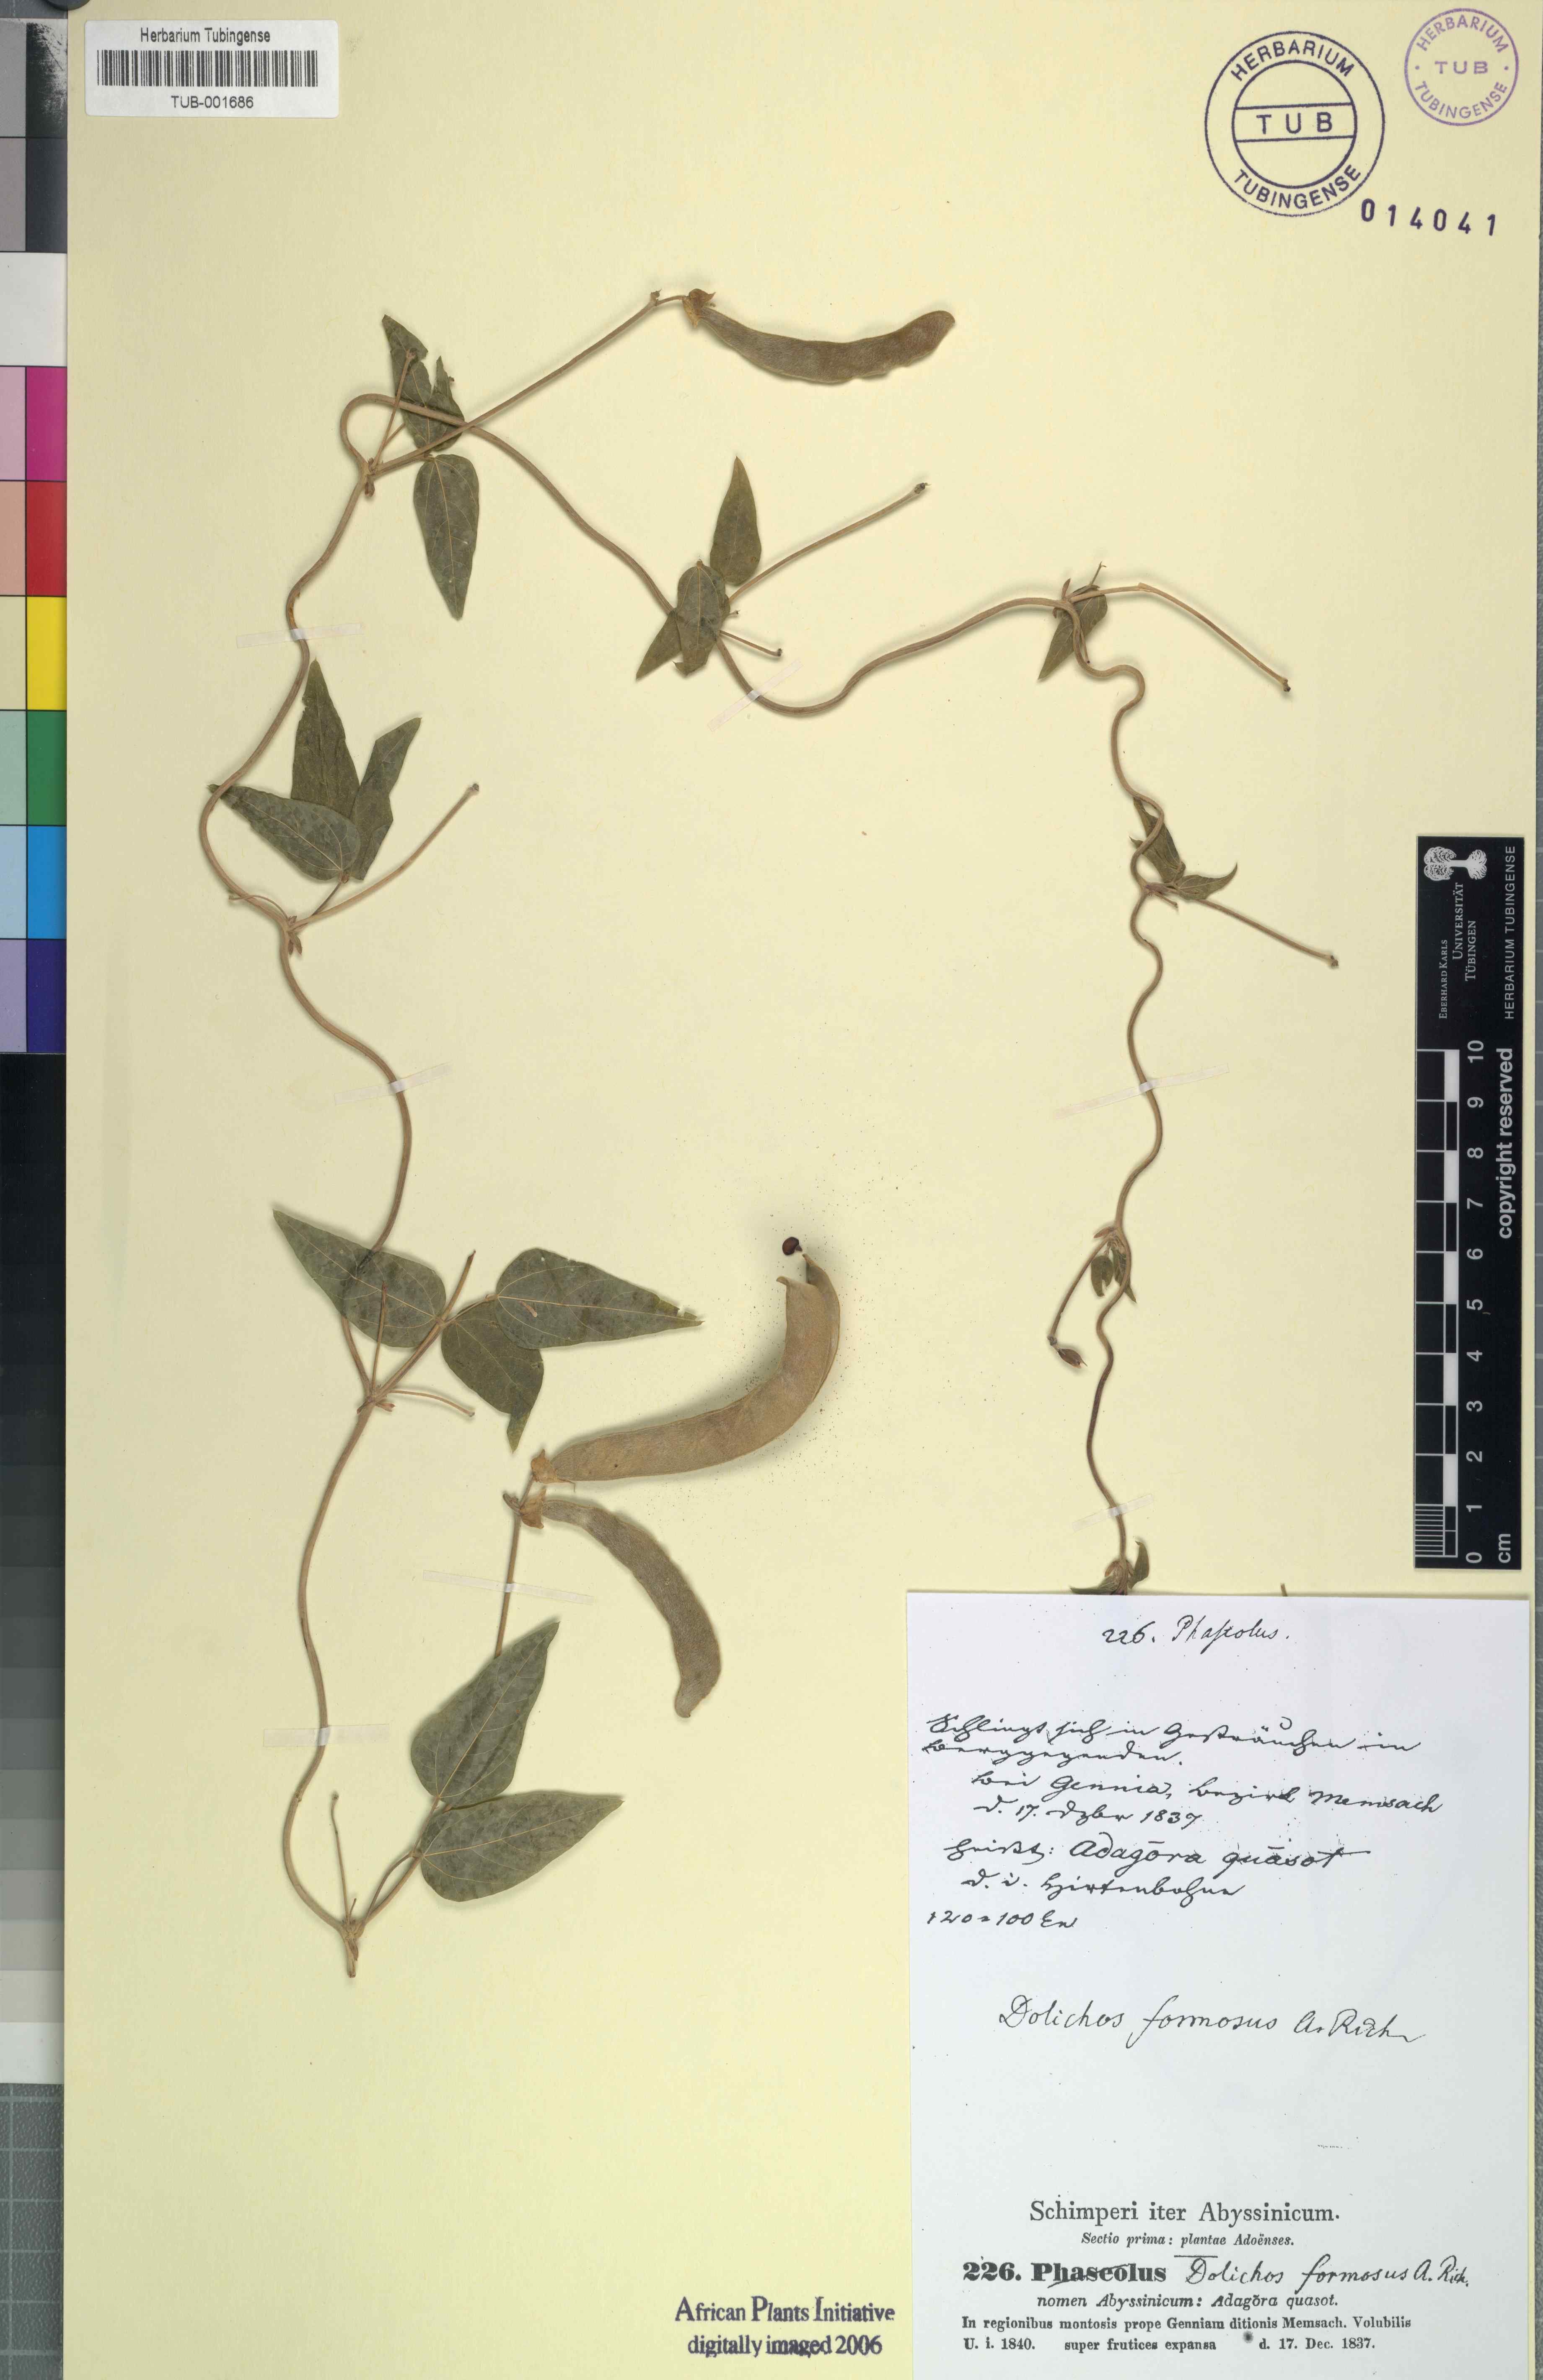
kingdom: Plantae
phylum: Tracheophyta
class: Magnoliopsida
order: Fabales
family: Fabaceae
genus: Dolichos
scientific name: Dolichos sericeus
